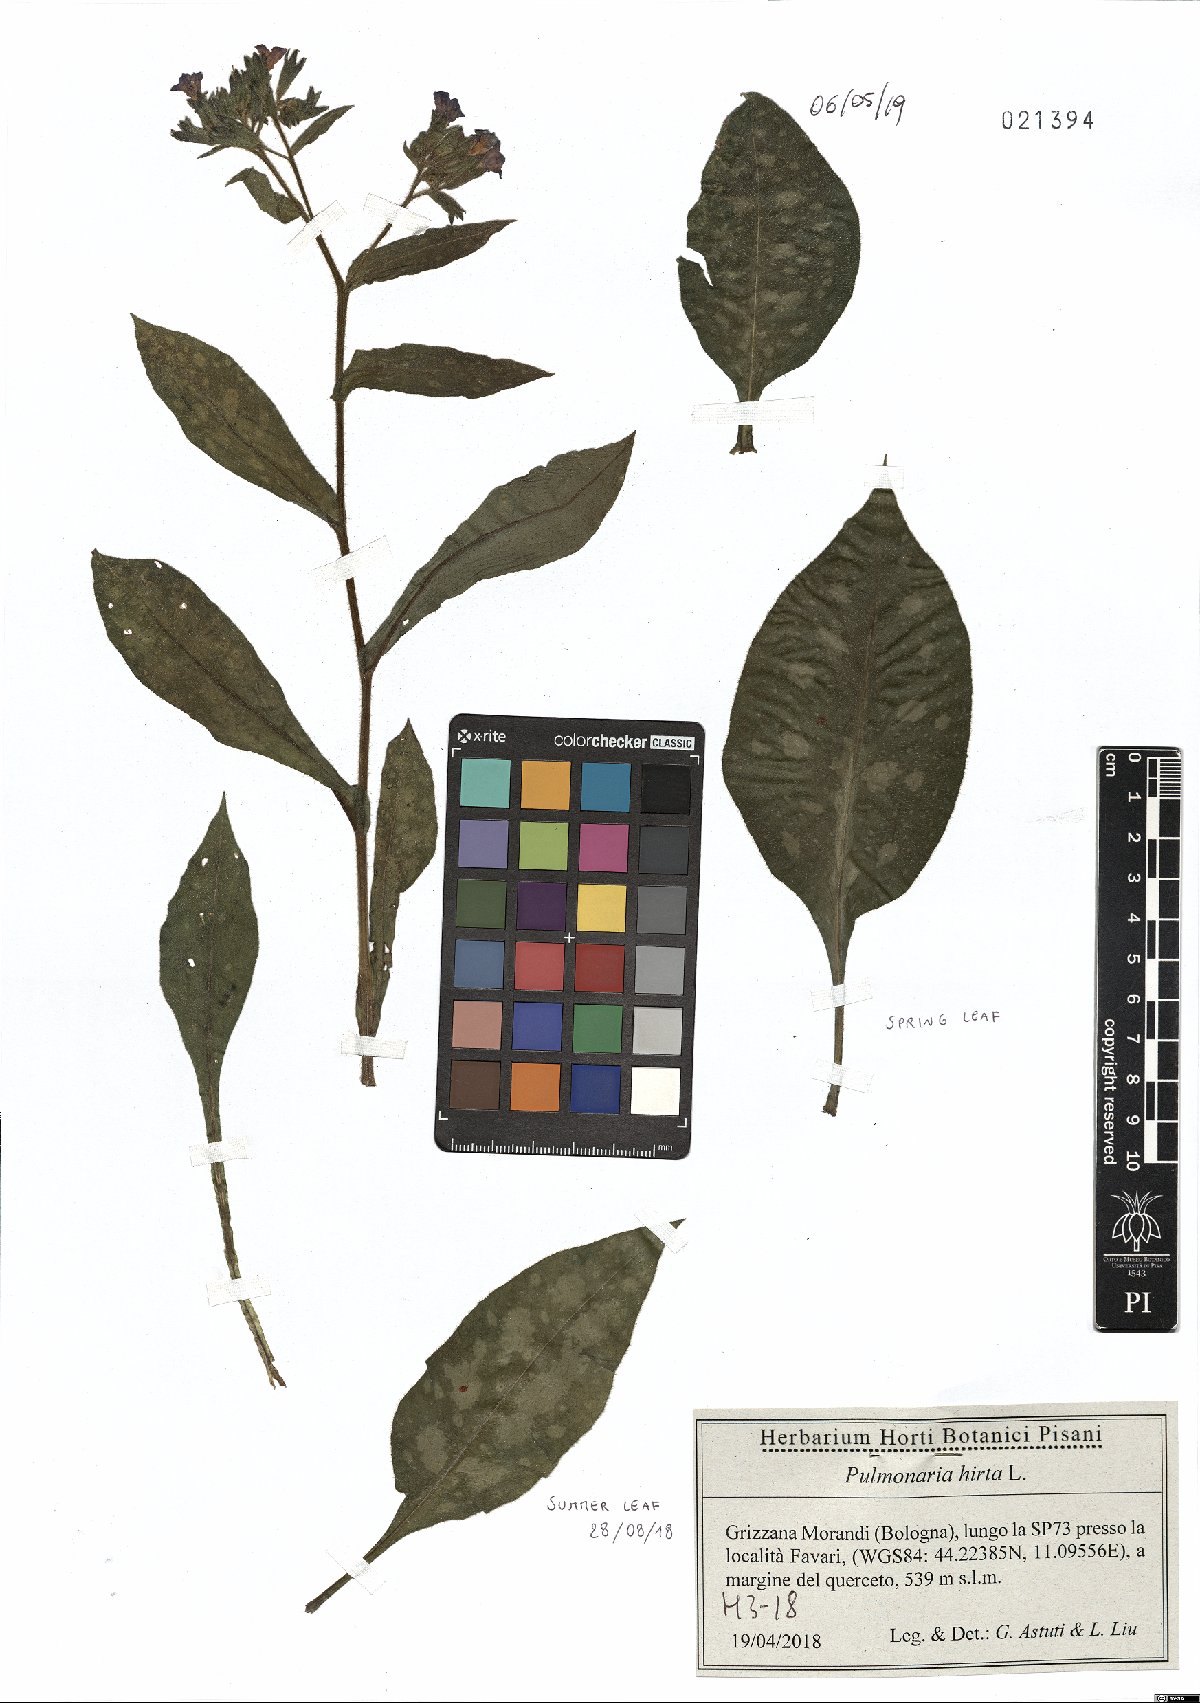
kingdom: Plantae
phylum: Tracheophyta
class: Magnoliopsida
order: Boraginales
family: Boraginaceae
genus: Pulmonaria
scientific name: Pulmonaria hirta
